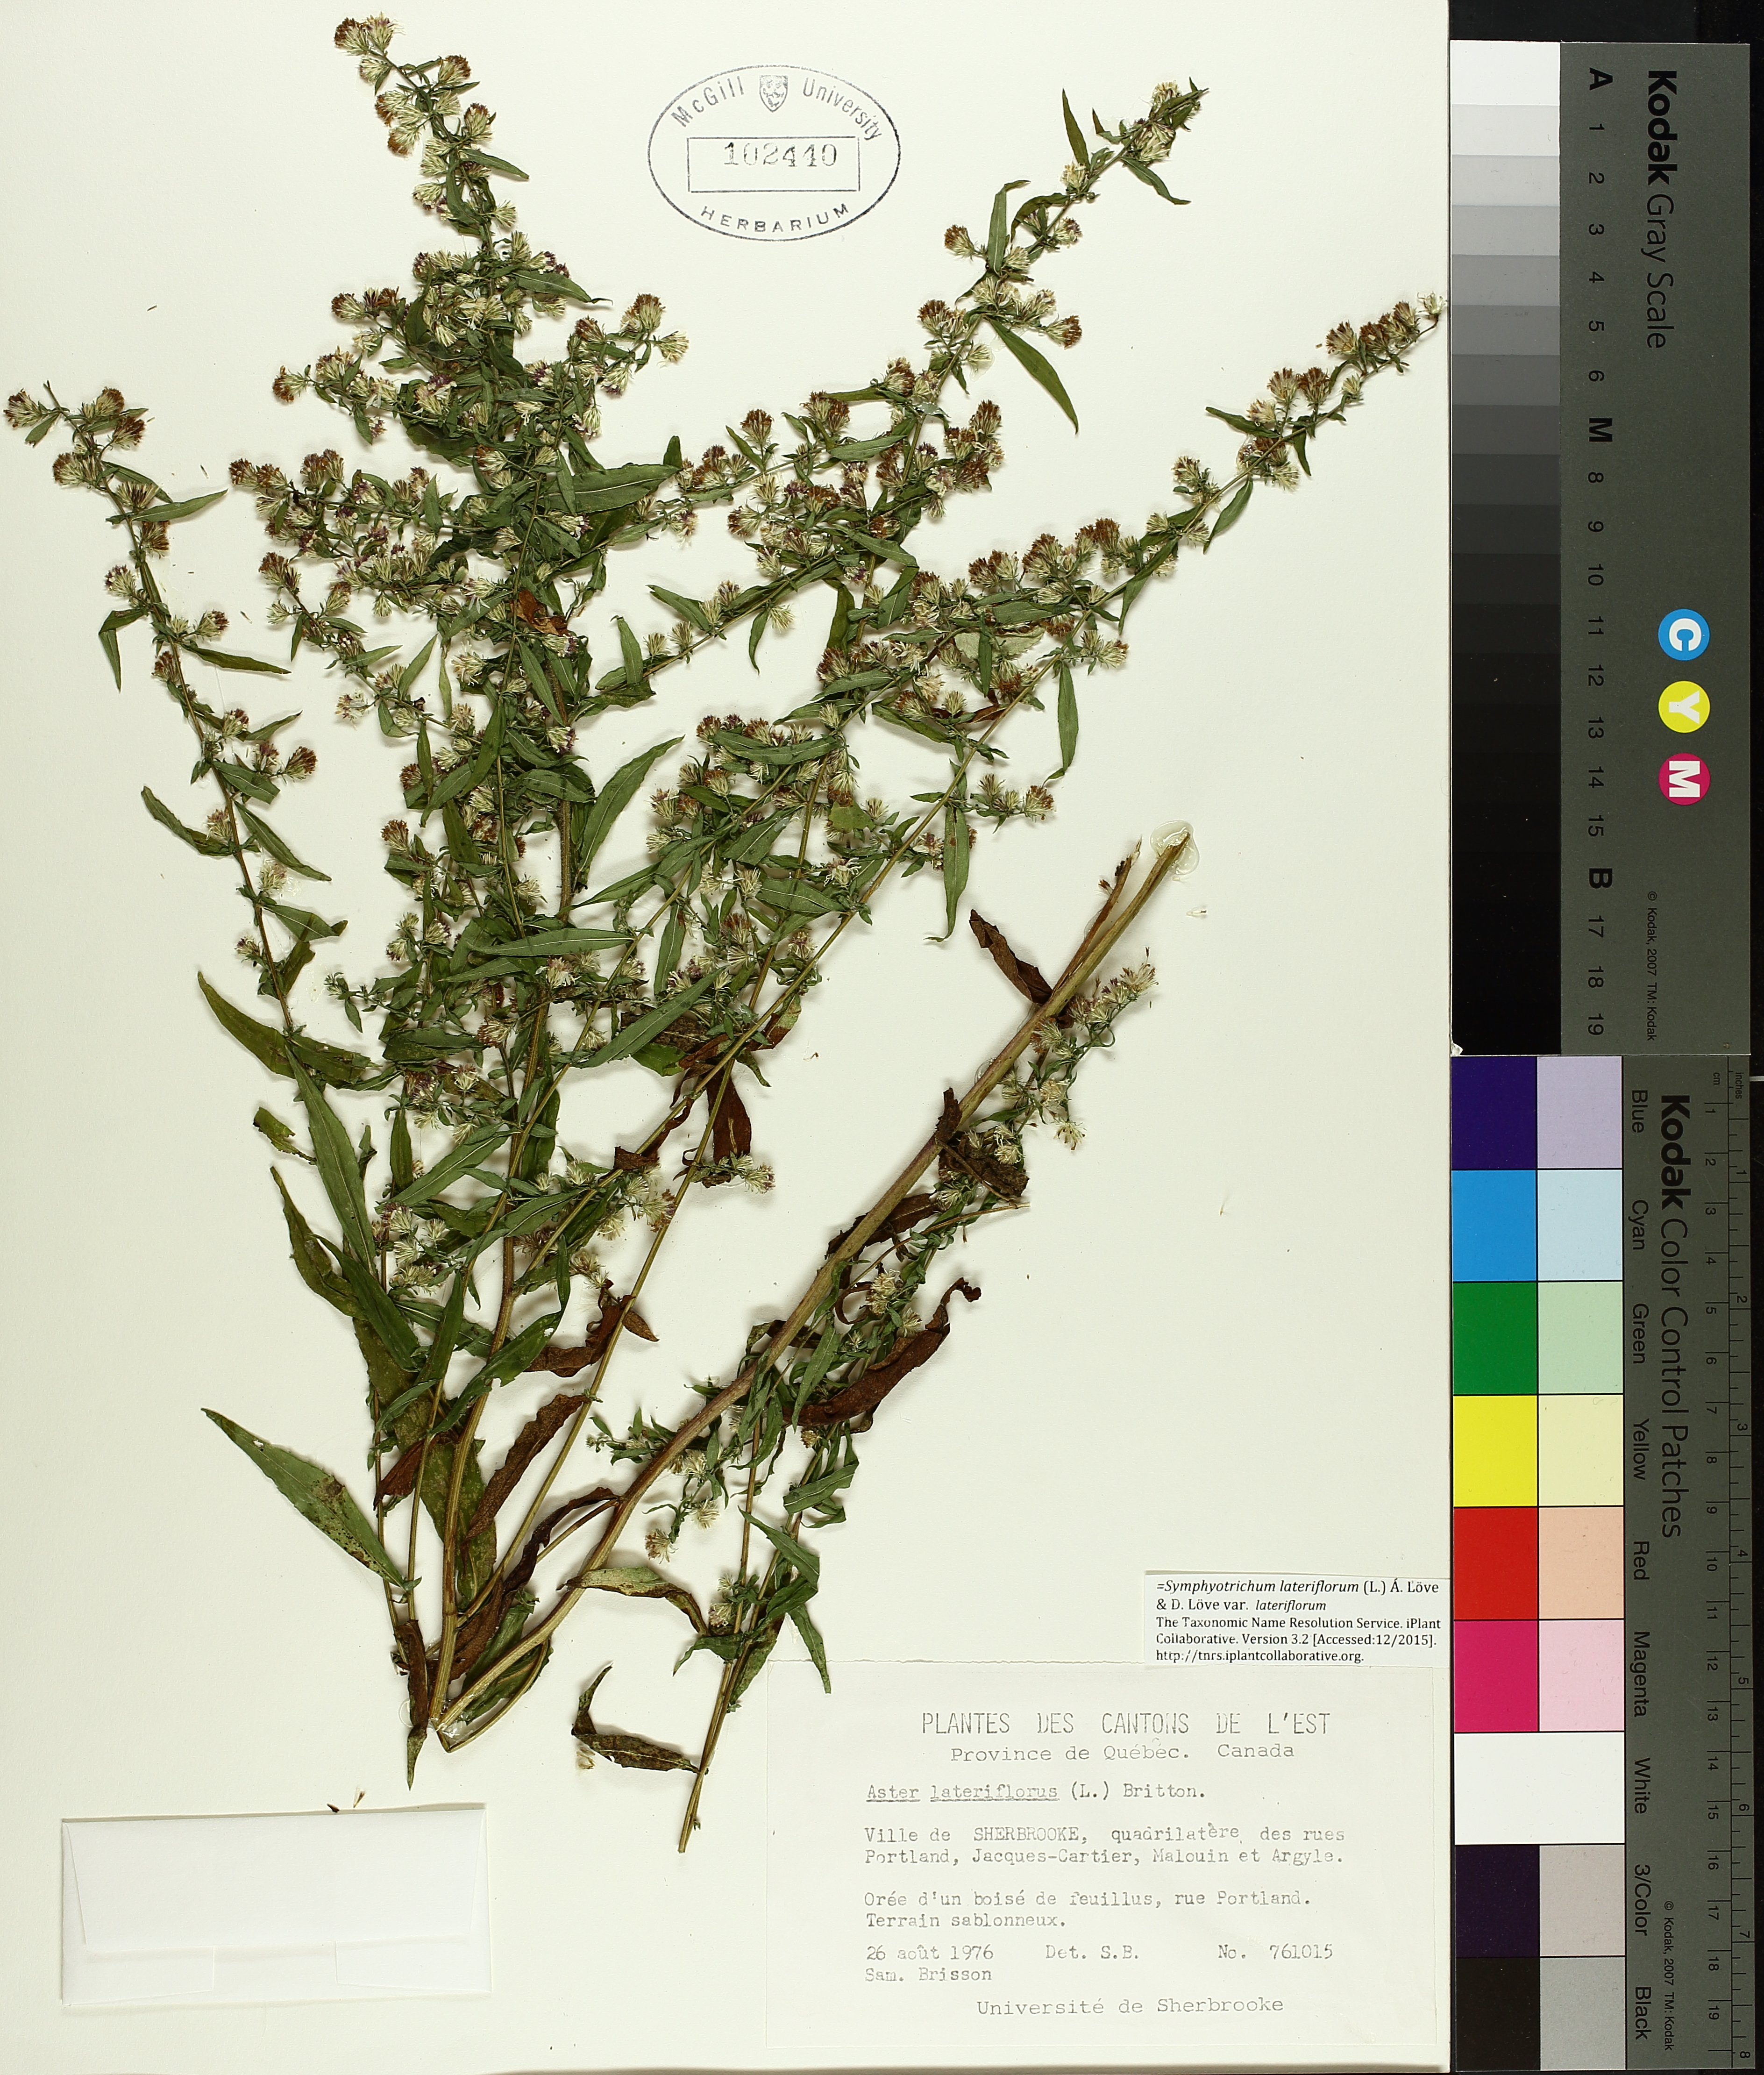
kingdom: Plantae
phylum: Tracheophyta
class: Magnoliopsida
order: Caryophyllales
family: Polygonaceae
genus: Rumex
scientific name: Rumex acetosa
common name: Garden sorrel
